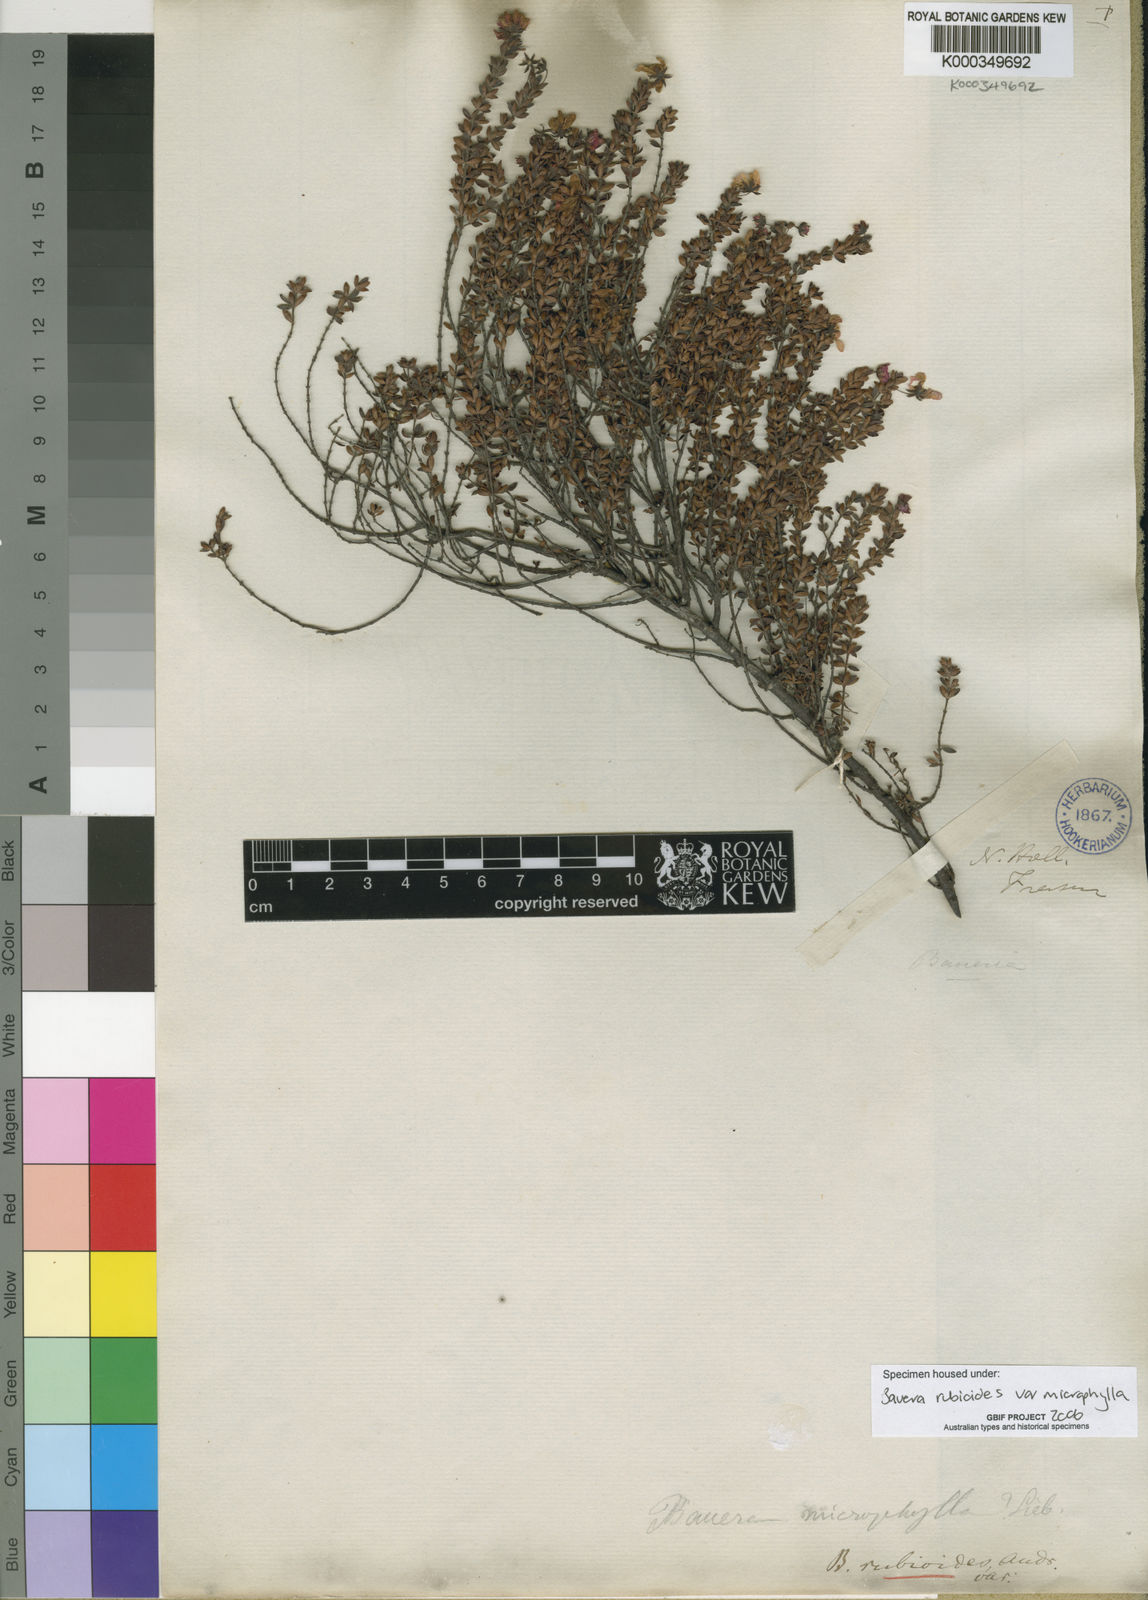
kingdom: Plantae
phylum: Tracheophyta
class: Magnoliopsida
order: Oxalidales
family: Cunoniaceae
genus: Bauera
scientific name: Bauera rubioides
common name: River-rose
